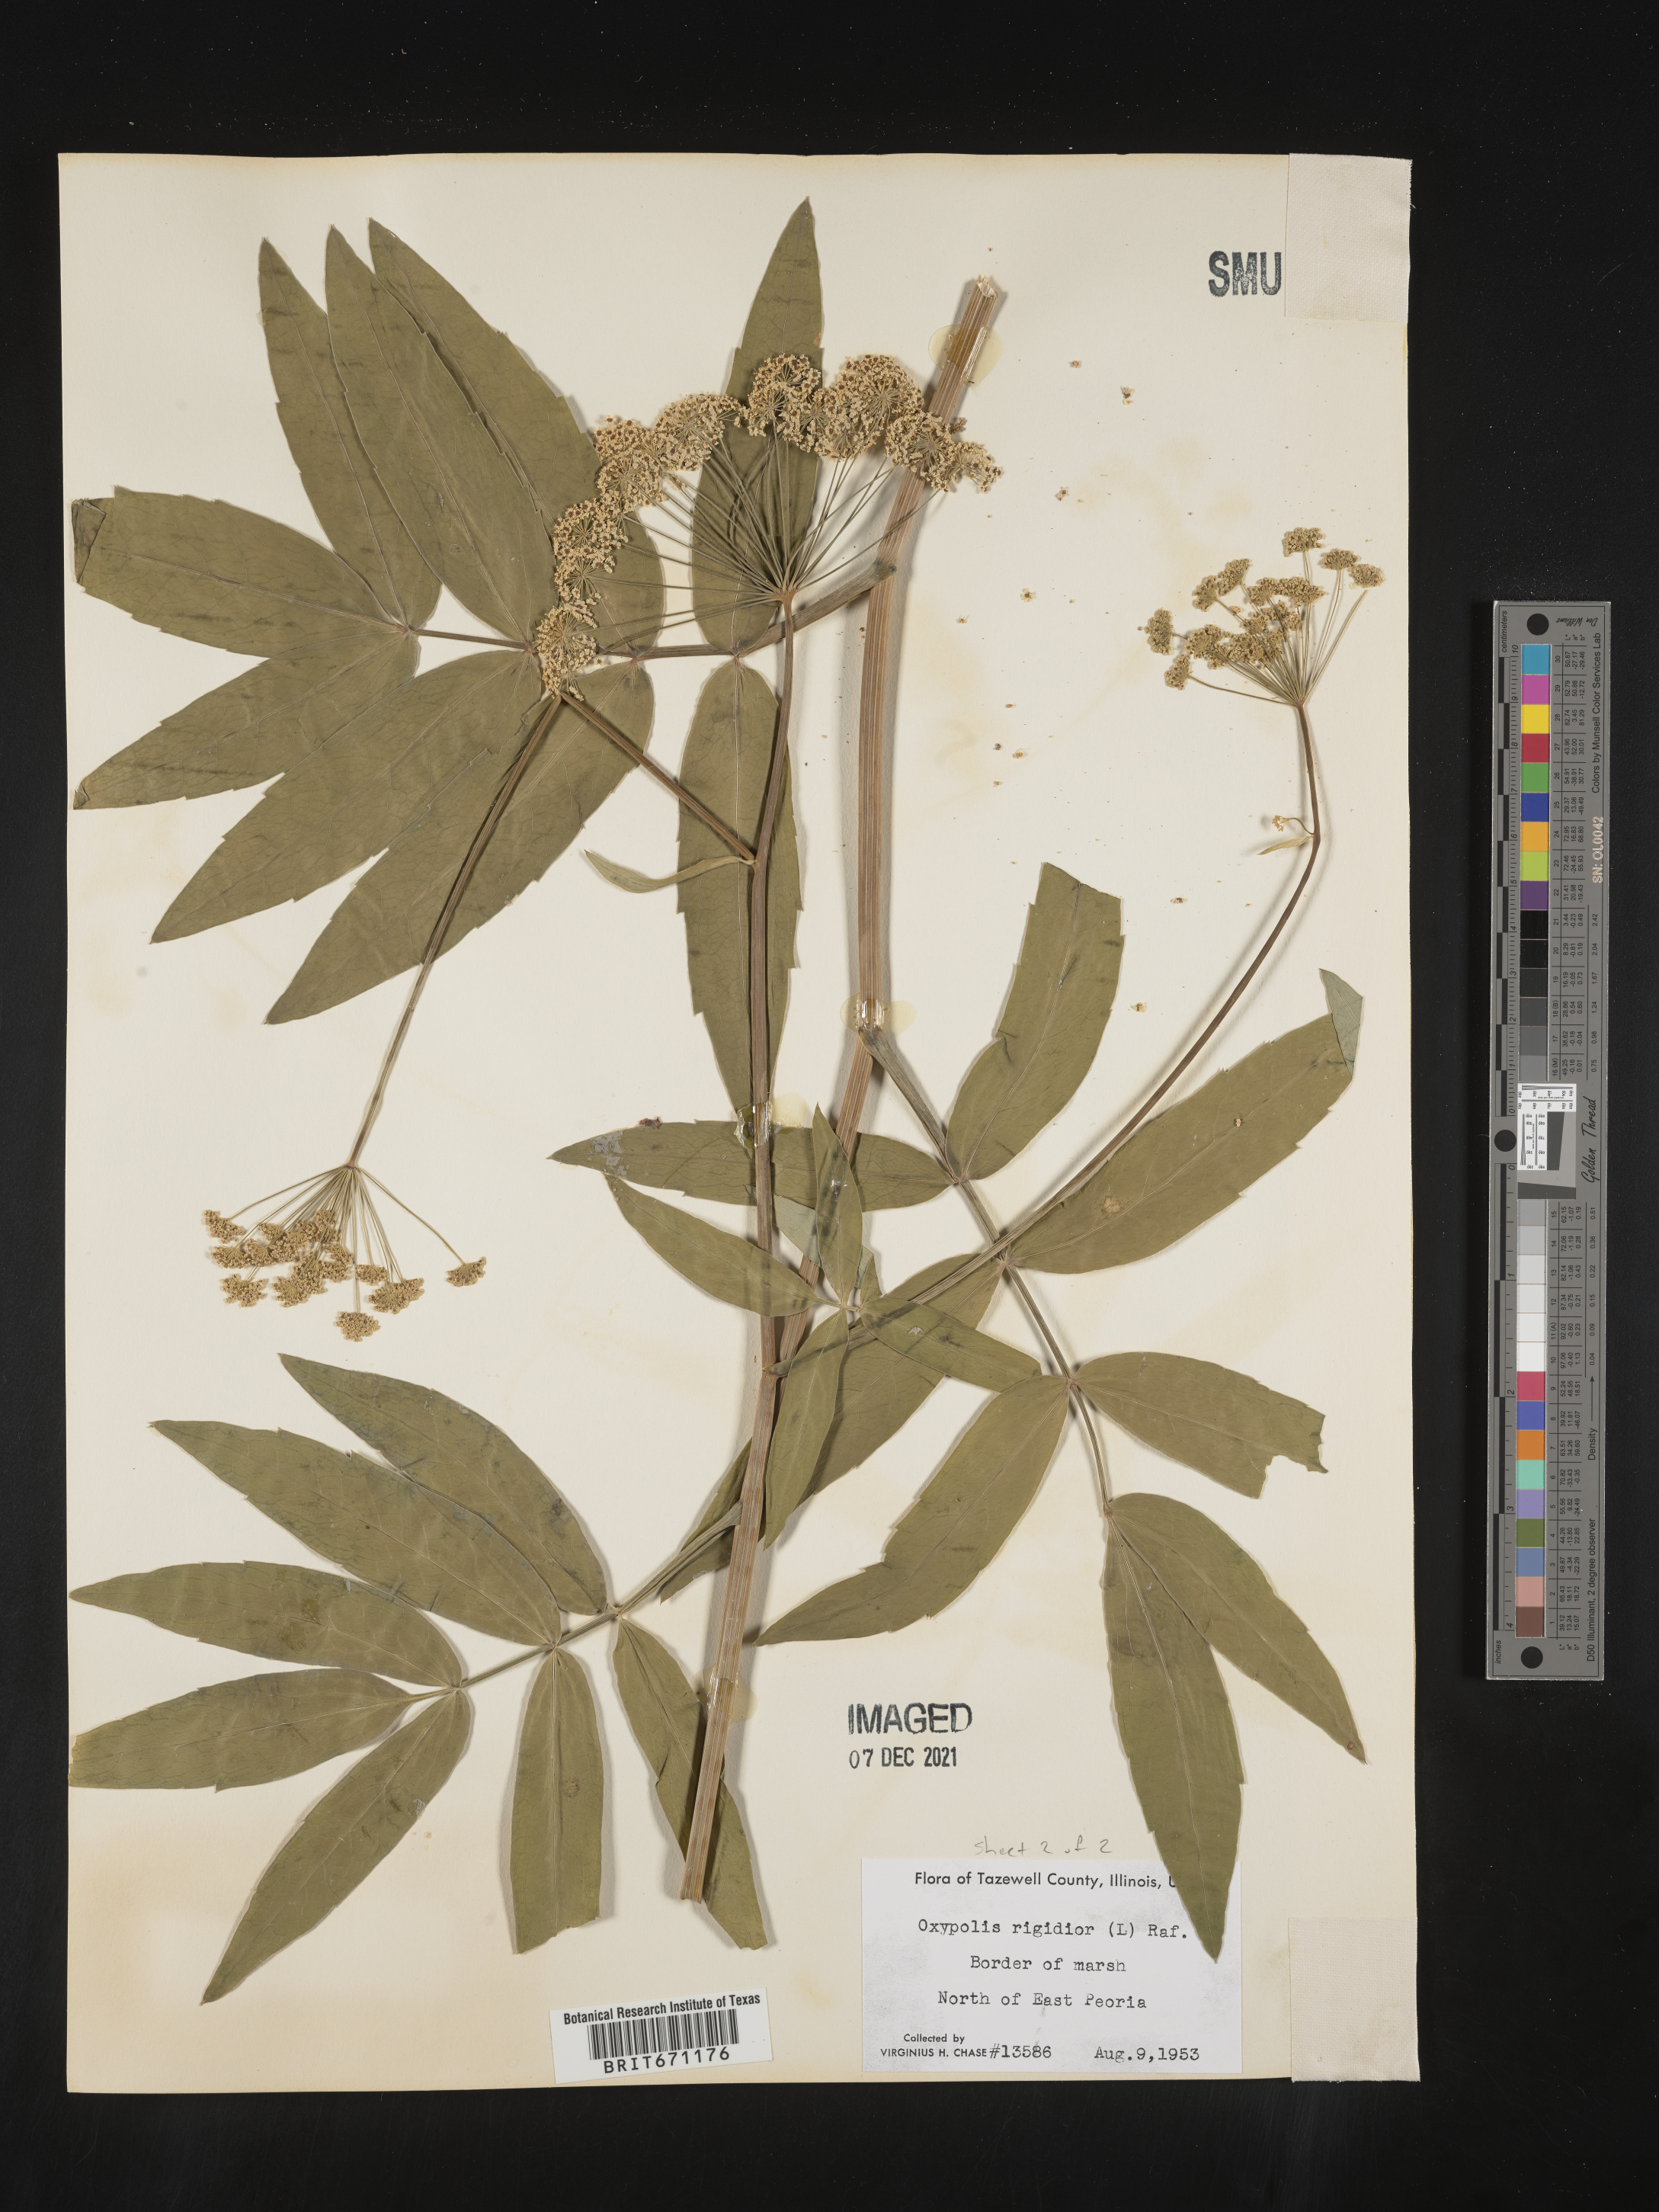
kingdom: Plantae
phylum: Tracheophyta
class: Magnoliopsida
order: Apiales
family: Apiaceae
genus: Oxypolis
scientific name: Oxypolis rigidior
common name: Cowbane
